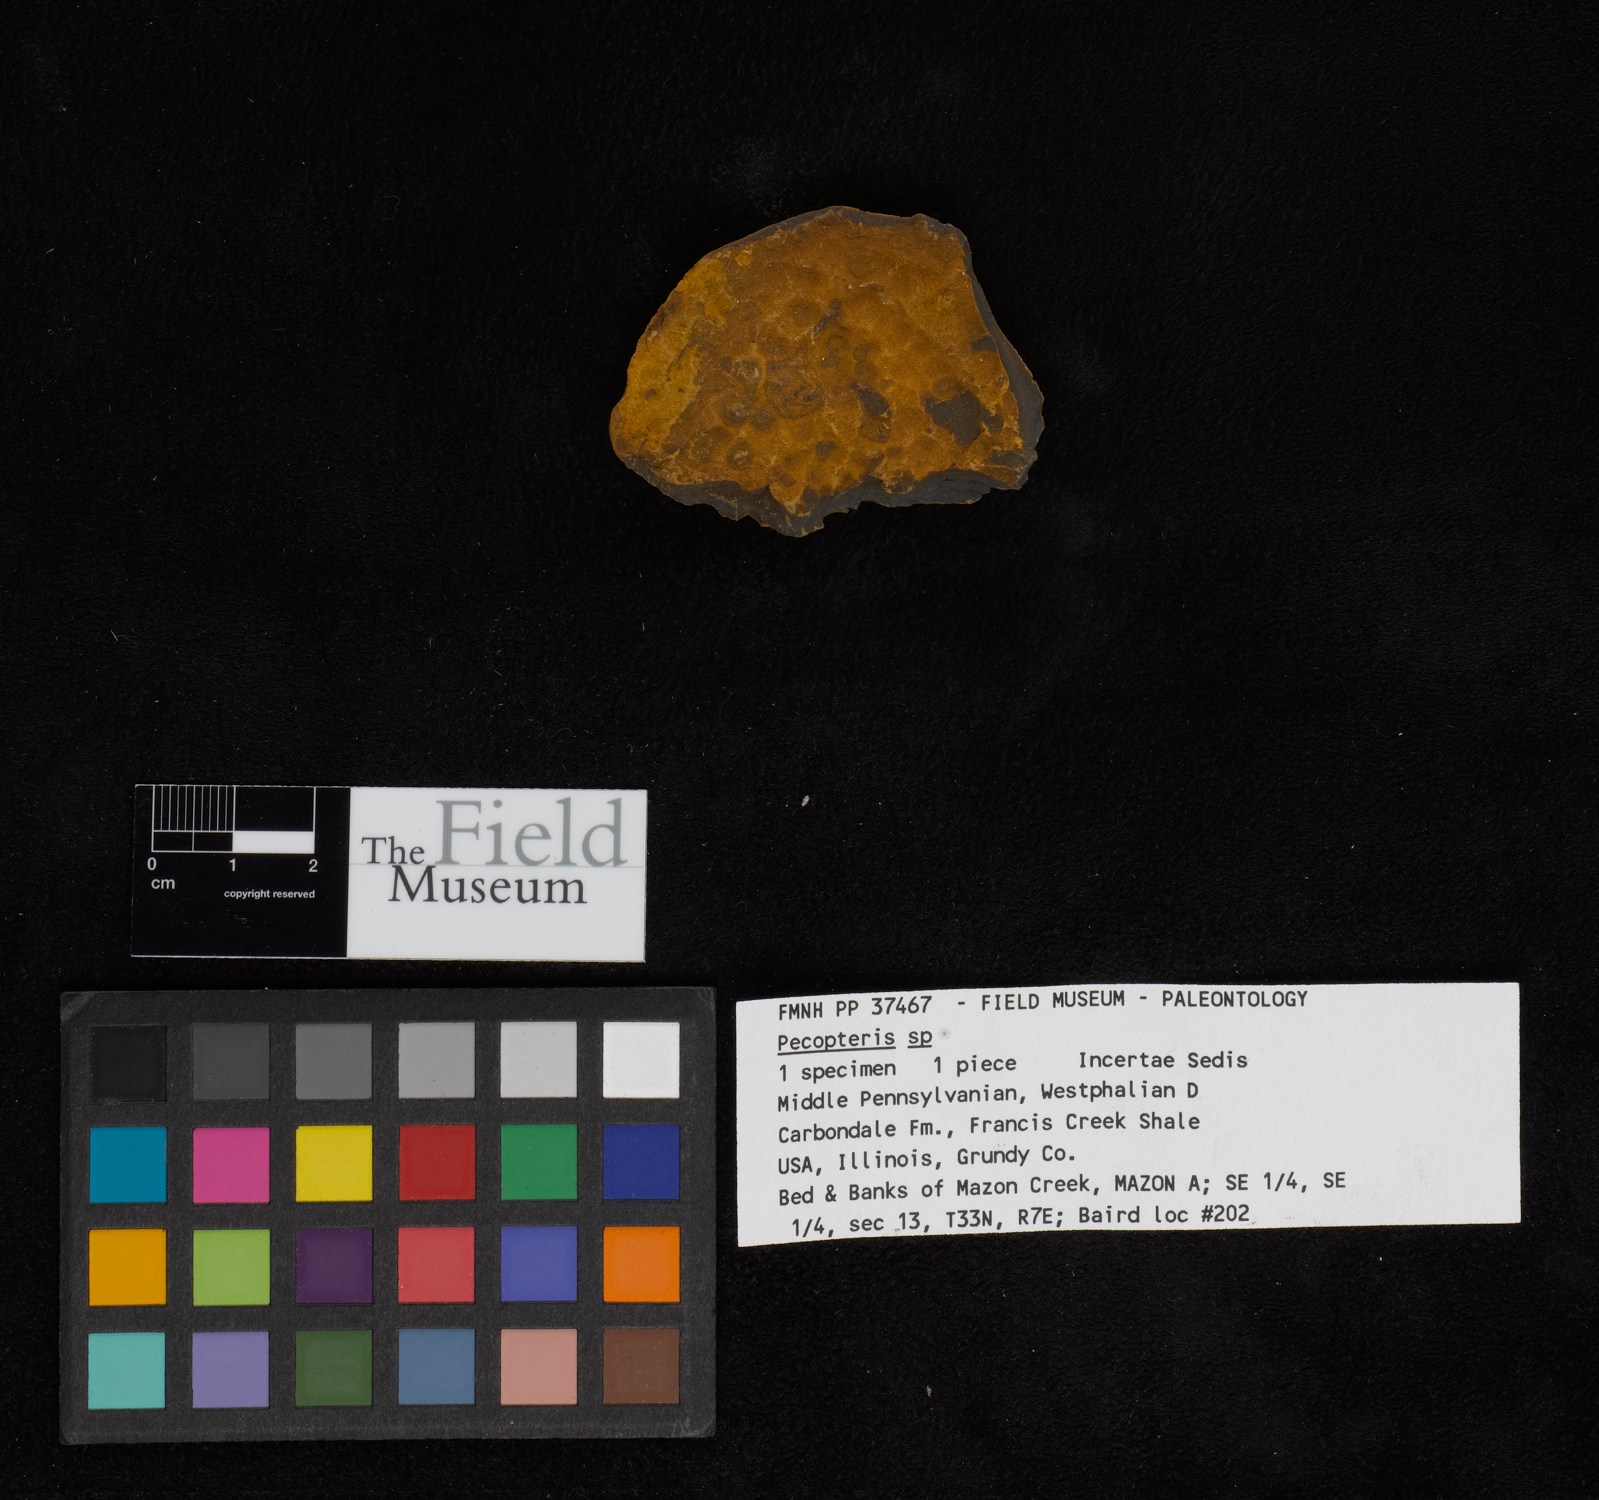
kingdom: Plantae
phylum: Tracheophyta
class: Polypodiopsida
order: Marattiales
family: Asterothecaceae
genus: Pecopteris
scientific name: Pecopteris
